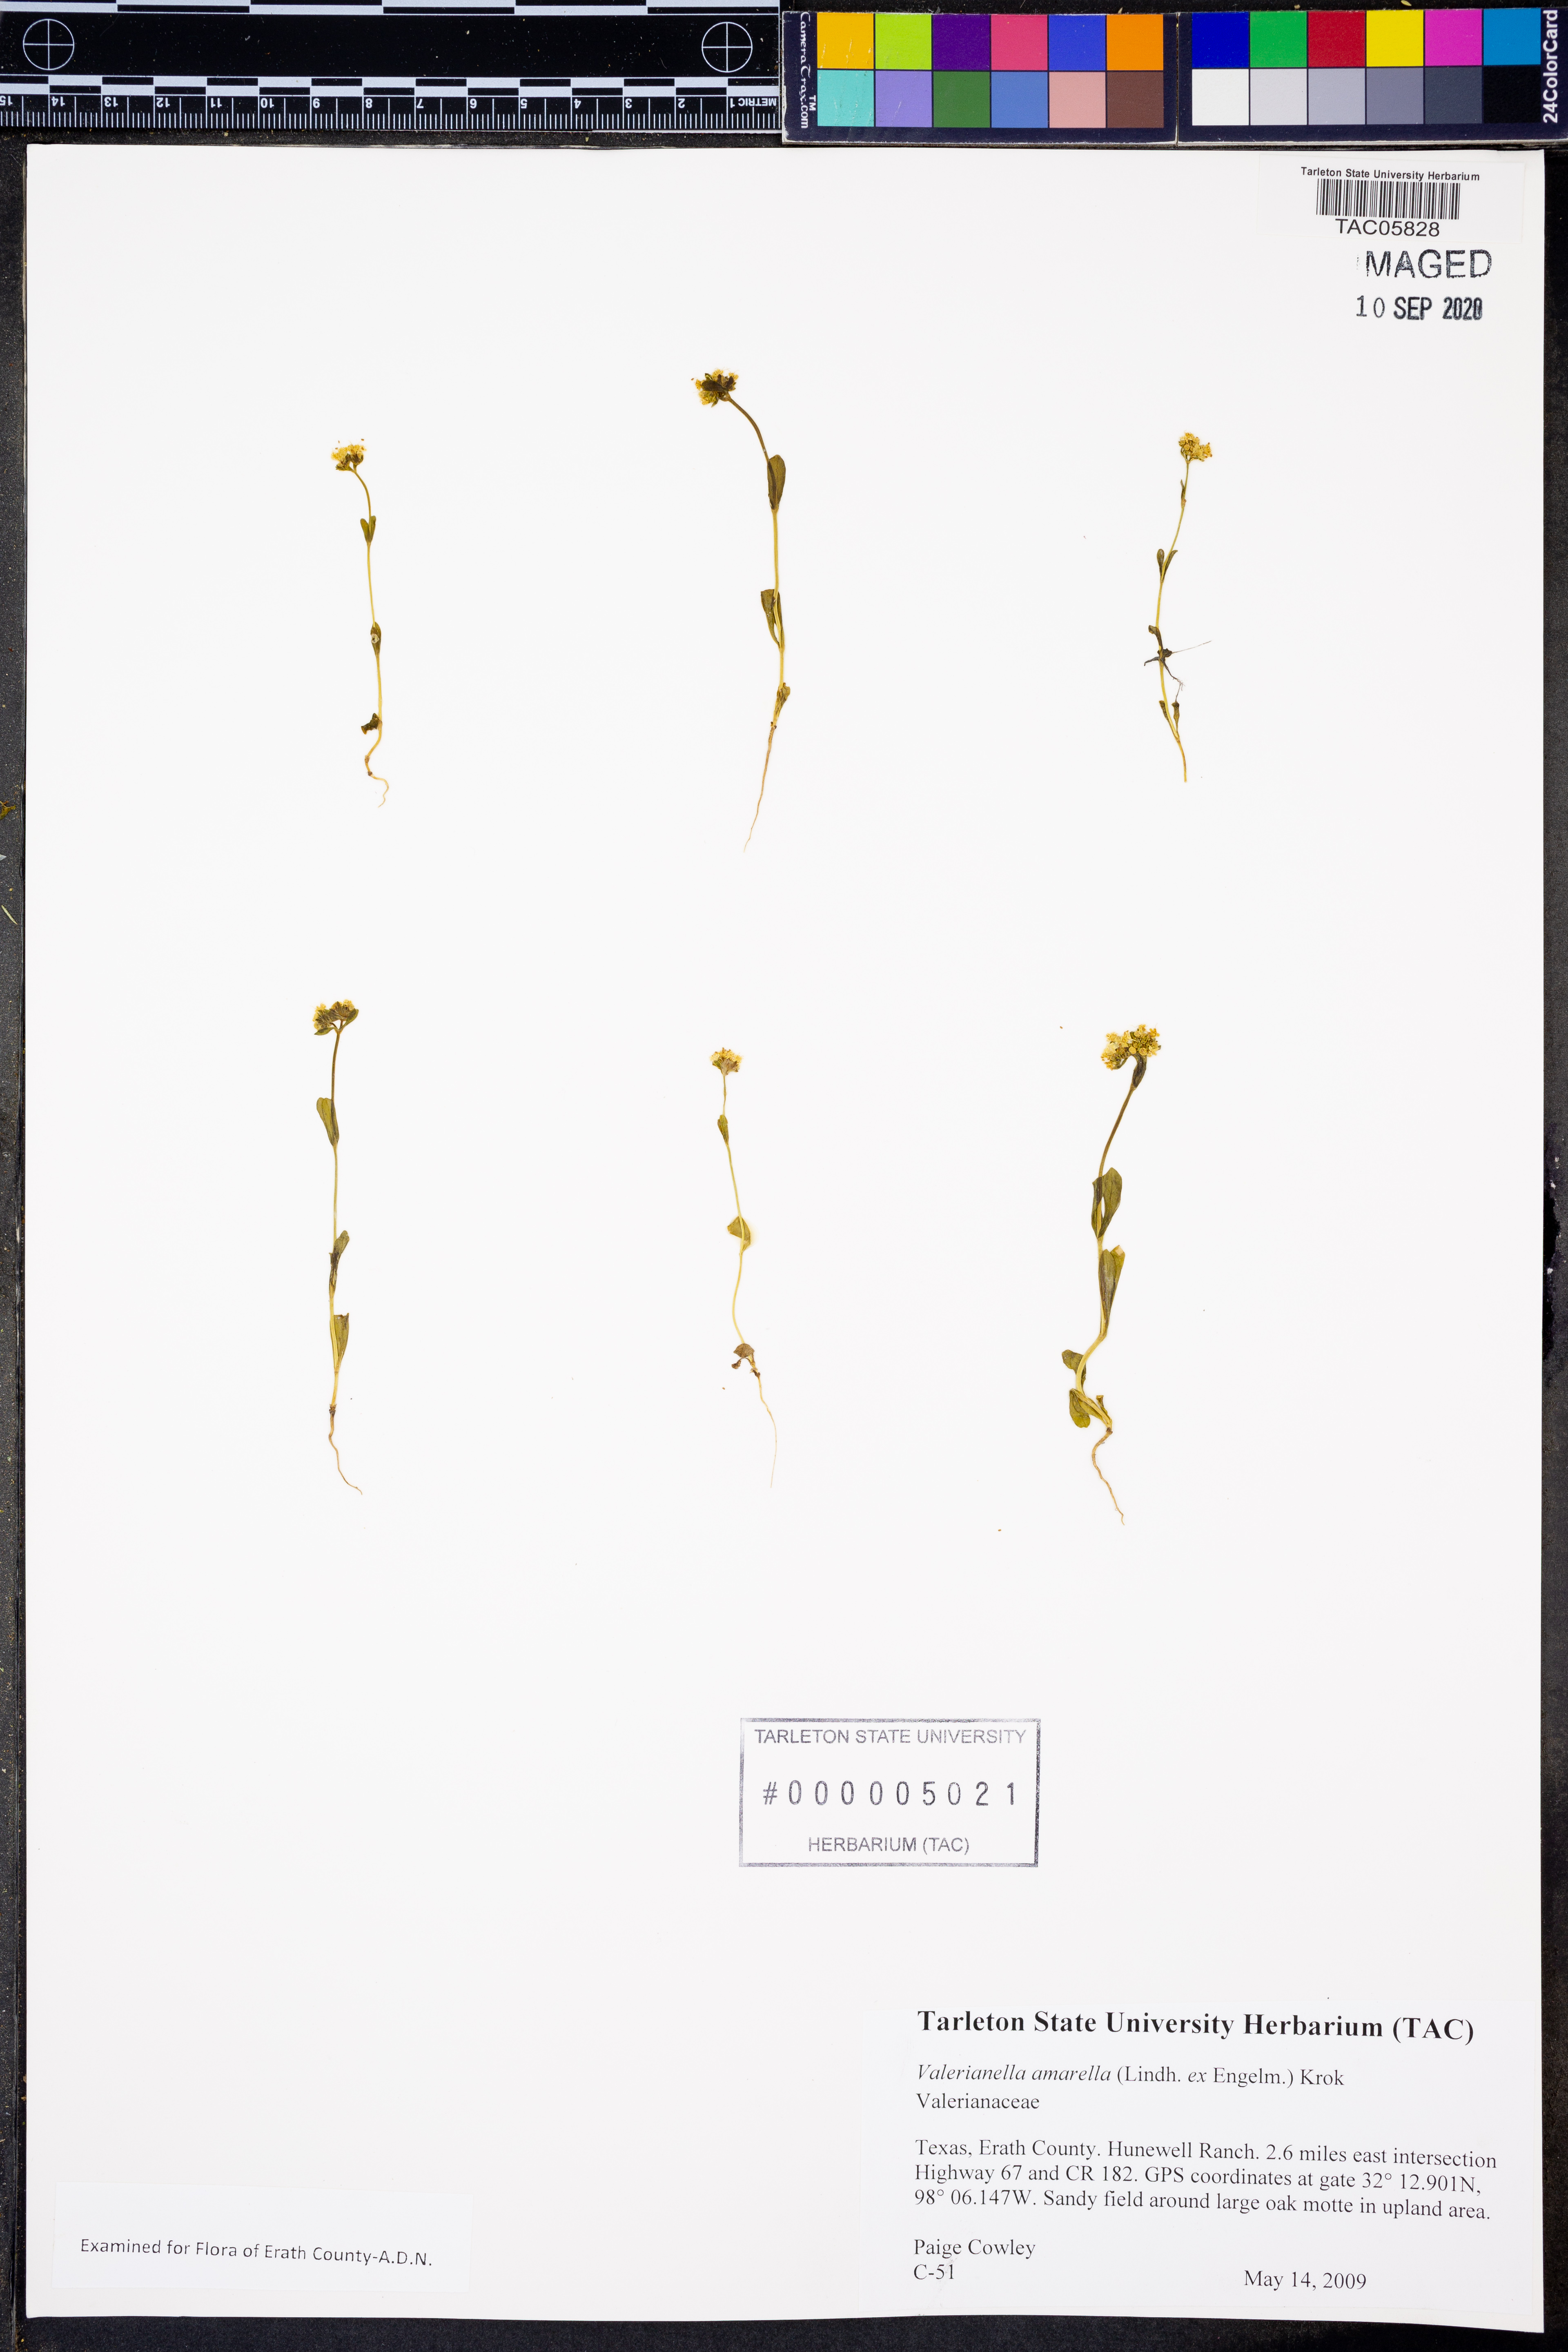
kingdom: Plantae
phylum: Tracheophyta
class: Magnoliopsida
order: Dipsacales
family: Caprifoliaceae
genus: Valerianella
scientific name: Valerianella amarella
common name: Hariy cornsalad
